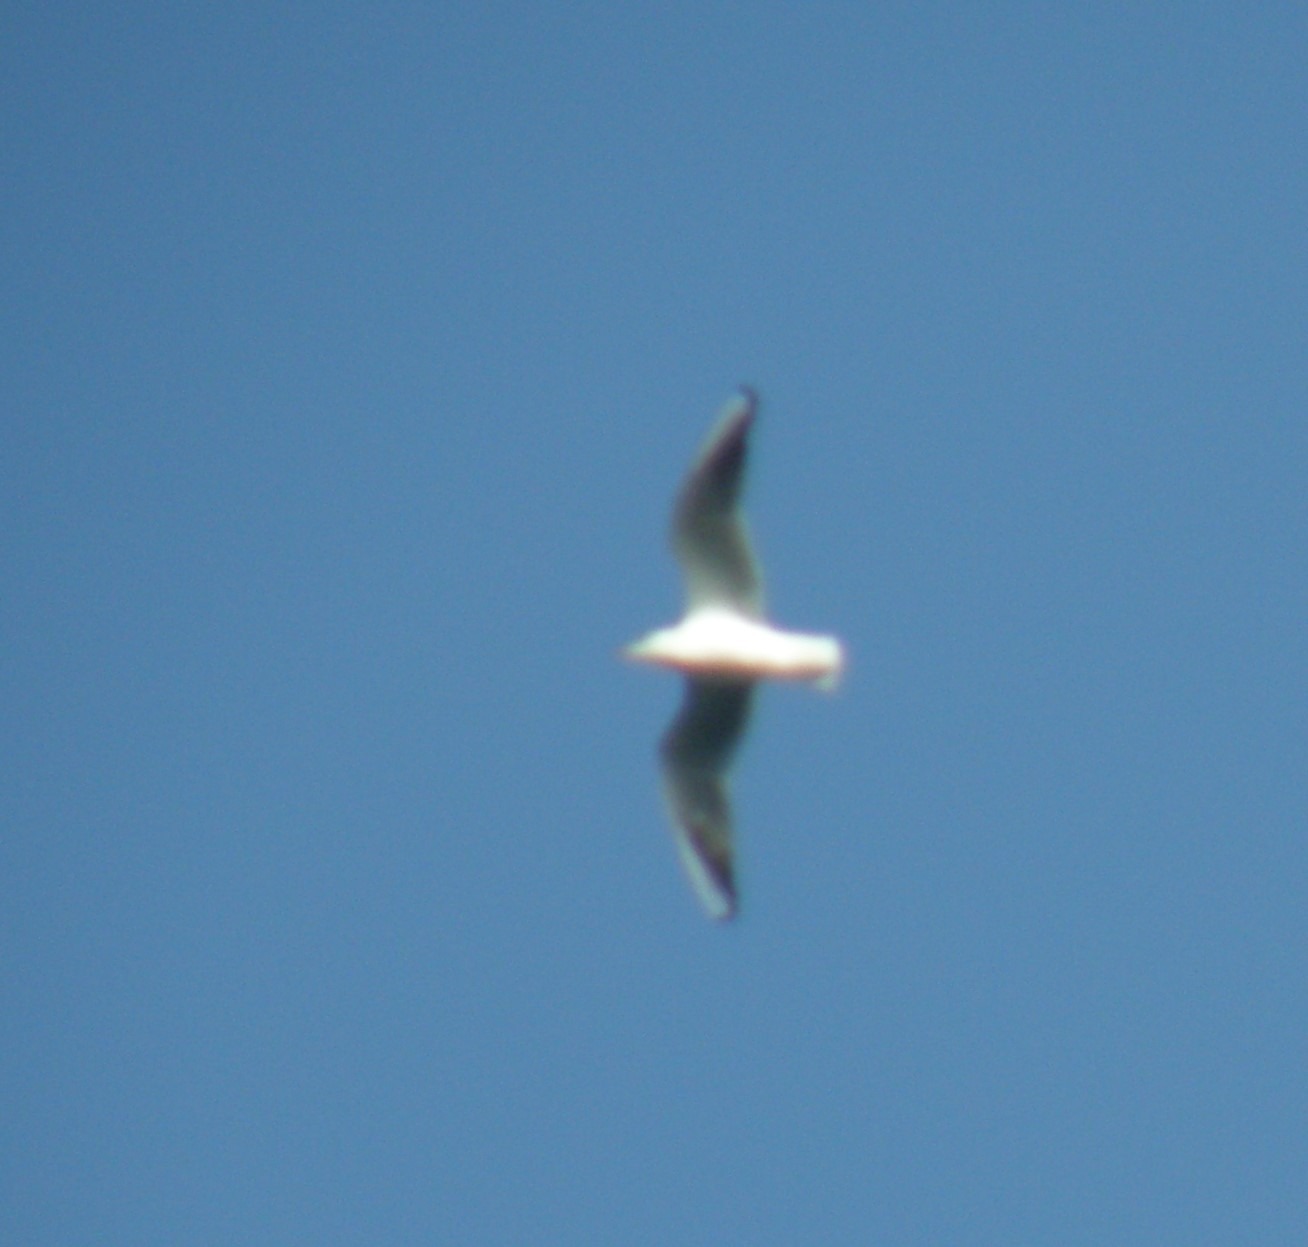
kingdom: Animalia
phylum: Chordata
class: Aves
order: Charadriiformes
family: Laridae
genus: Chroicocephalus
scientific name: Chroicocephalus ridibundus
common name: Hættemåge
